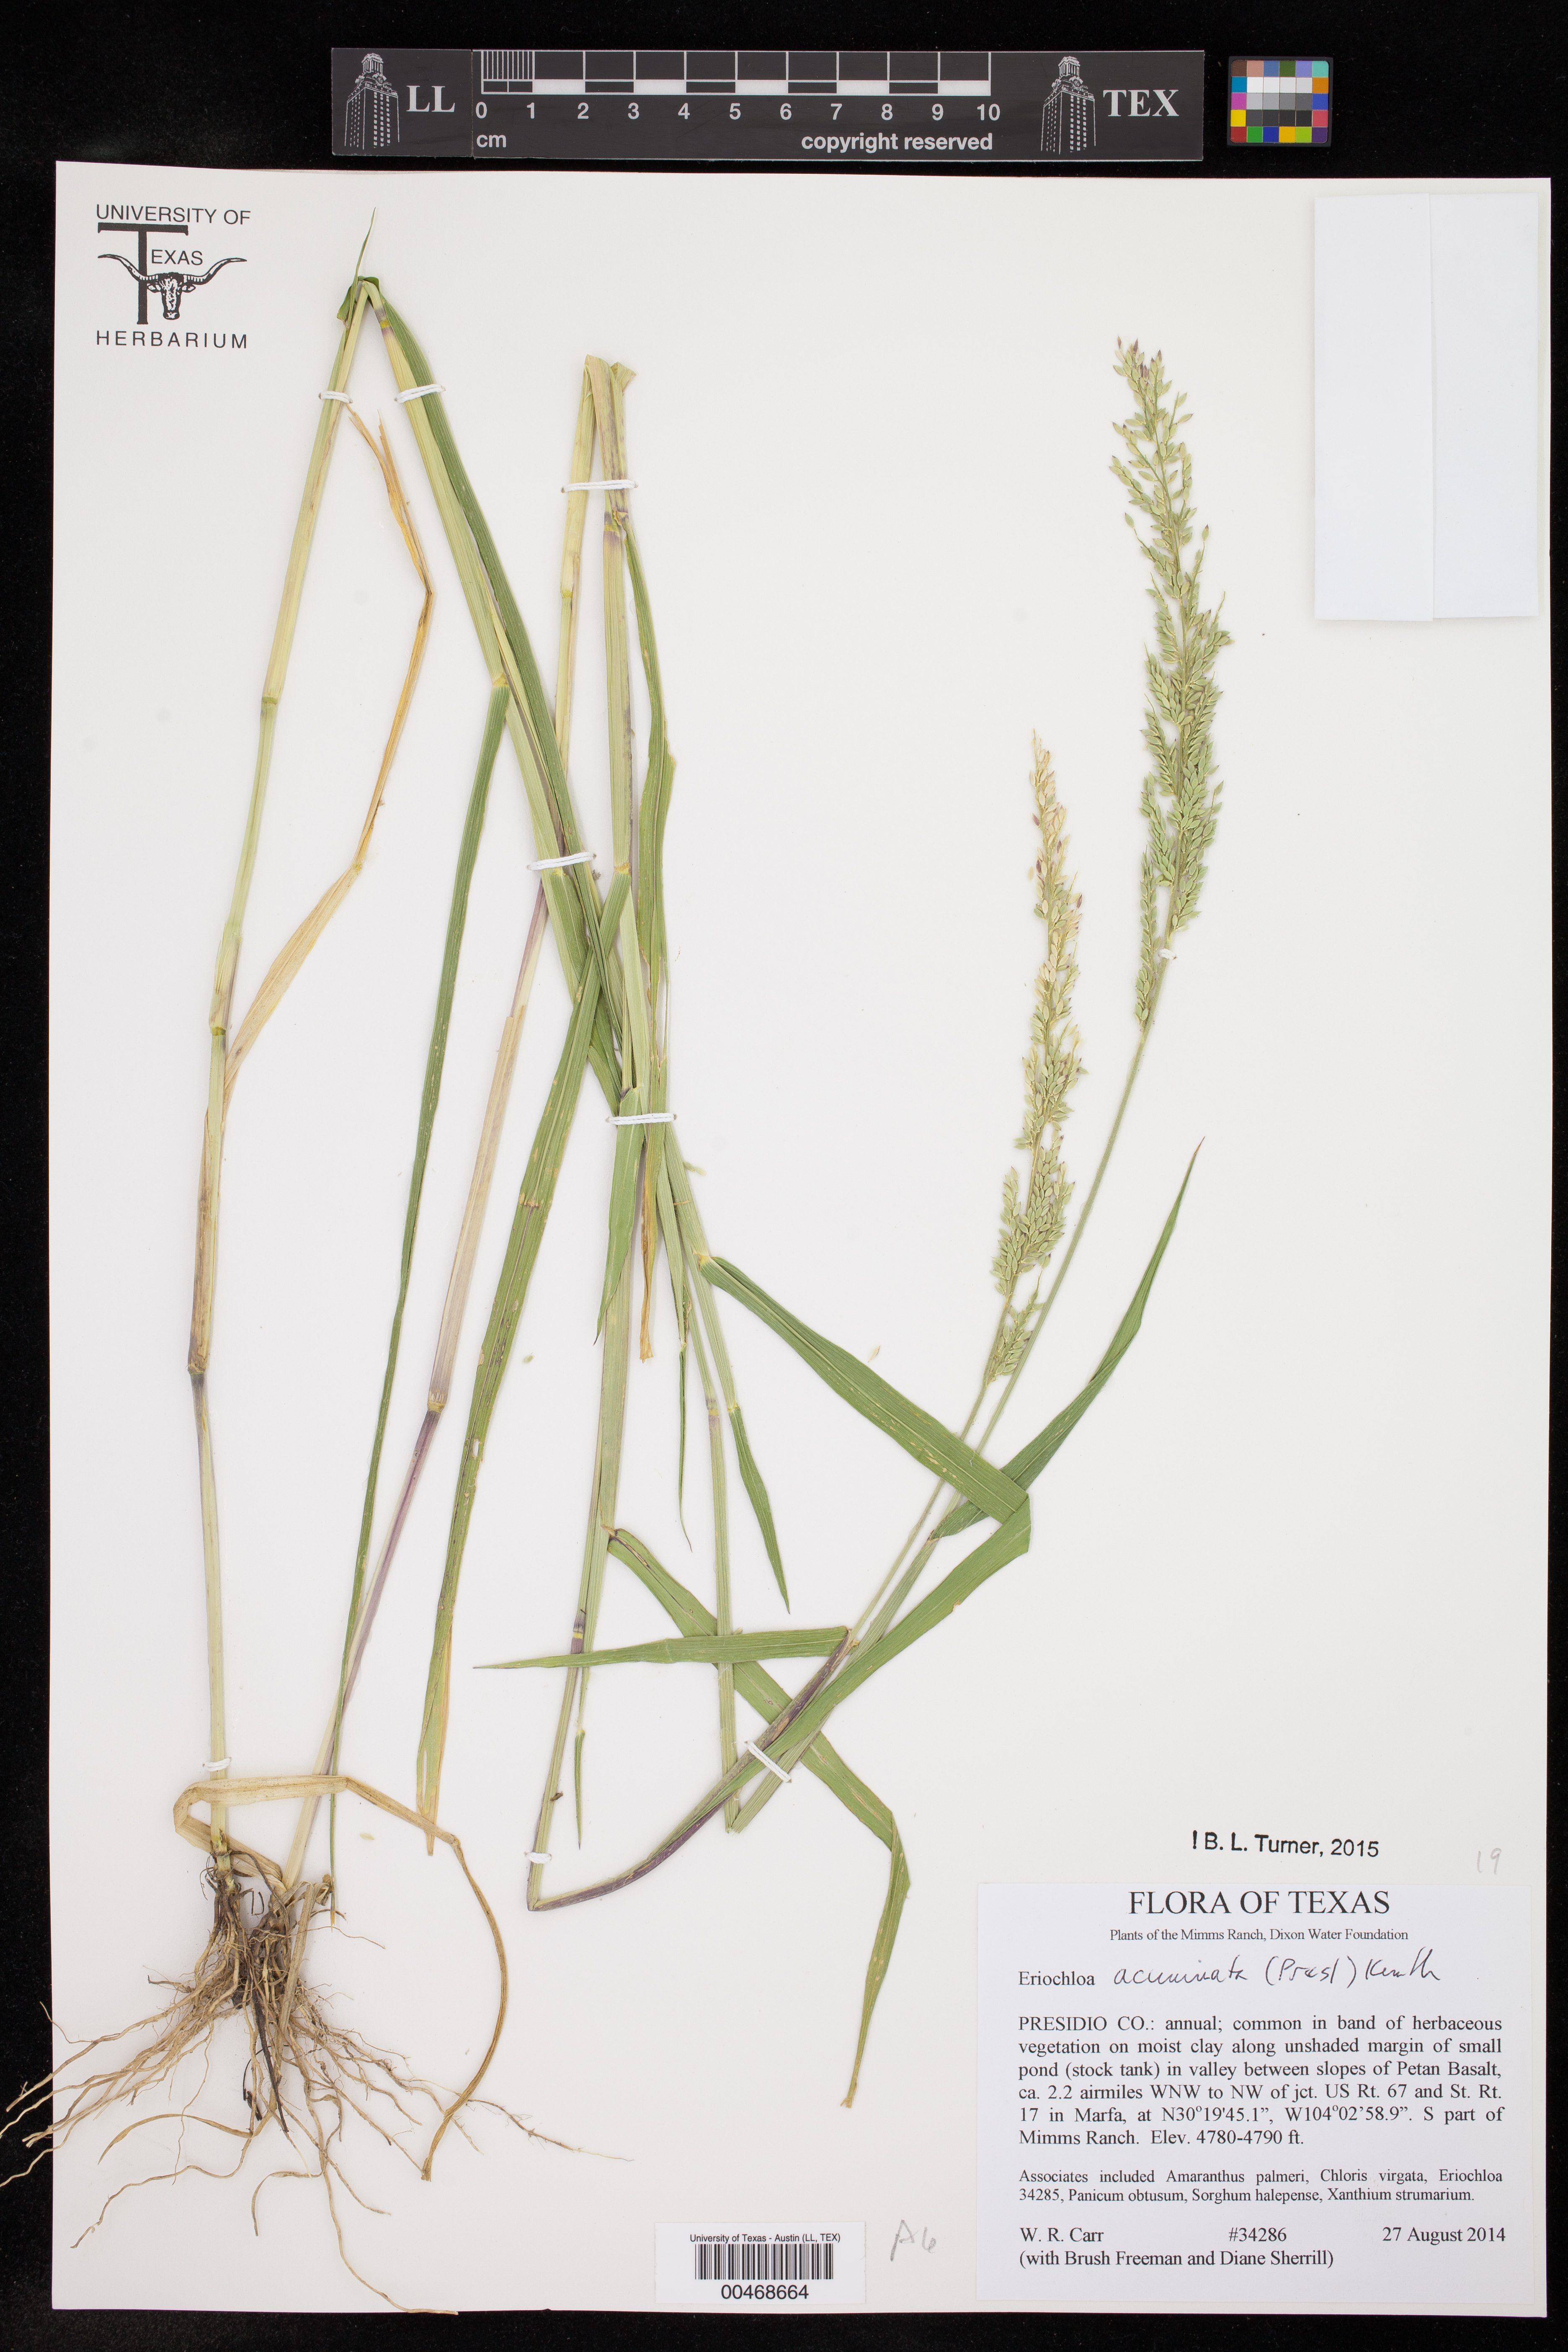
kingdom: Plantae
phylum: Tracheophyta
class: Liliopsida
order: Poales
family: Poaceae
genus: Eriochloa
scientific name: Eriochloa acuminata
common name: Southwestern cup grass
